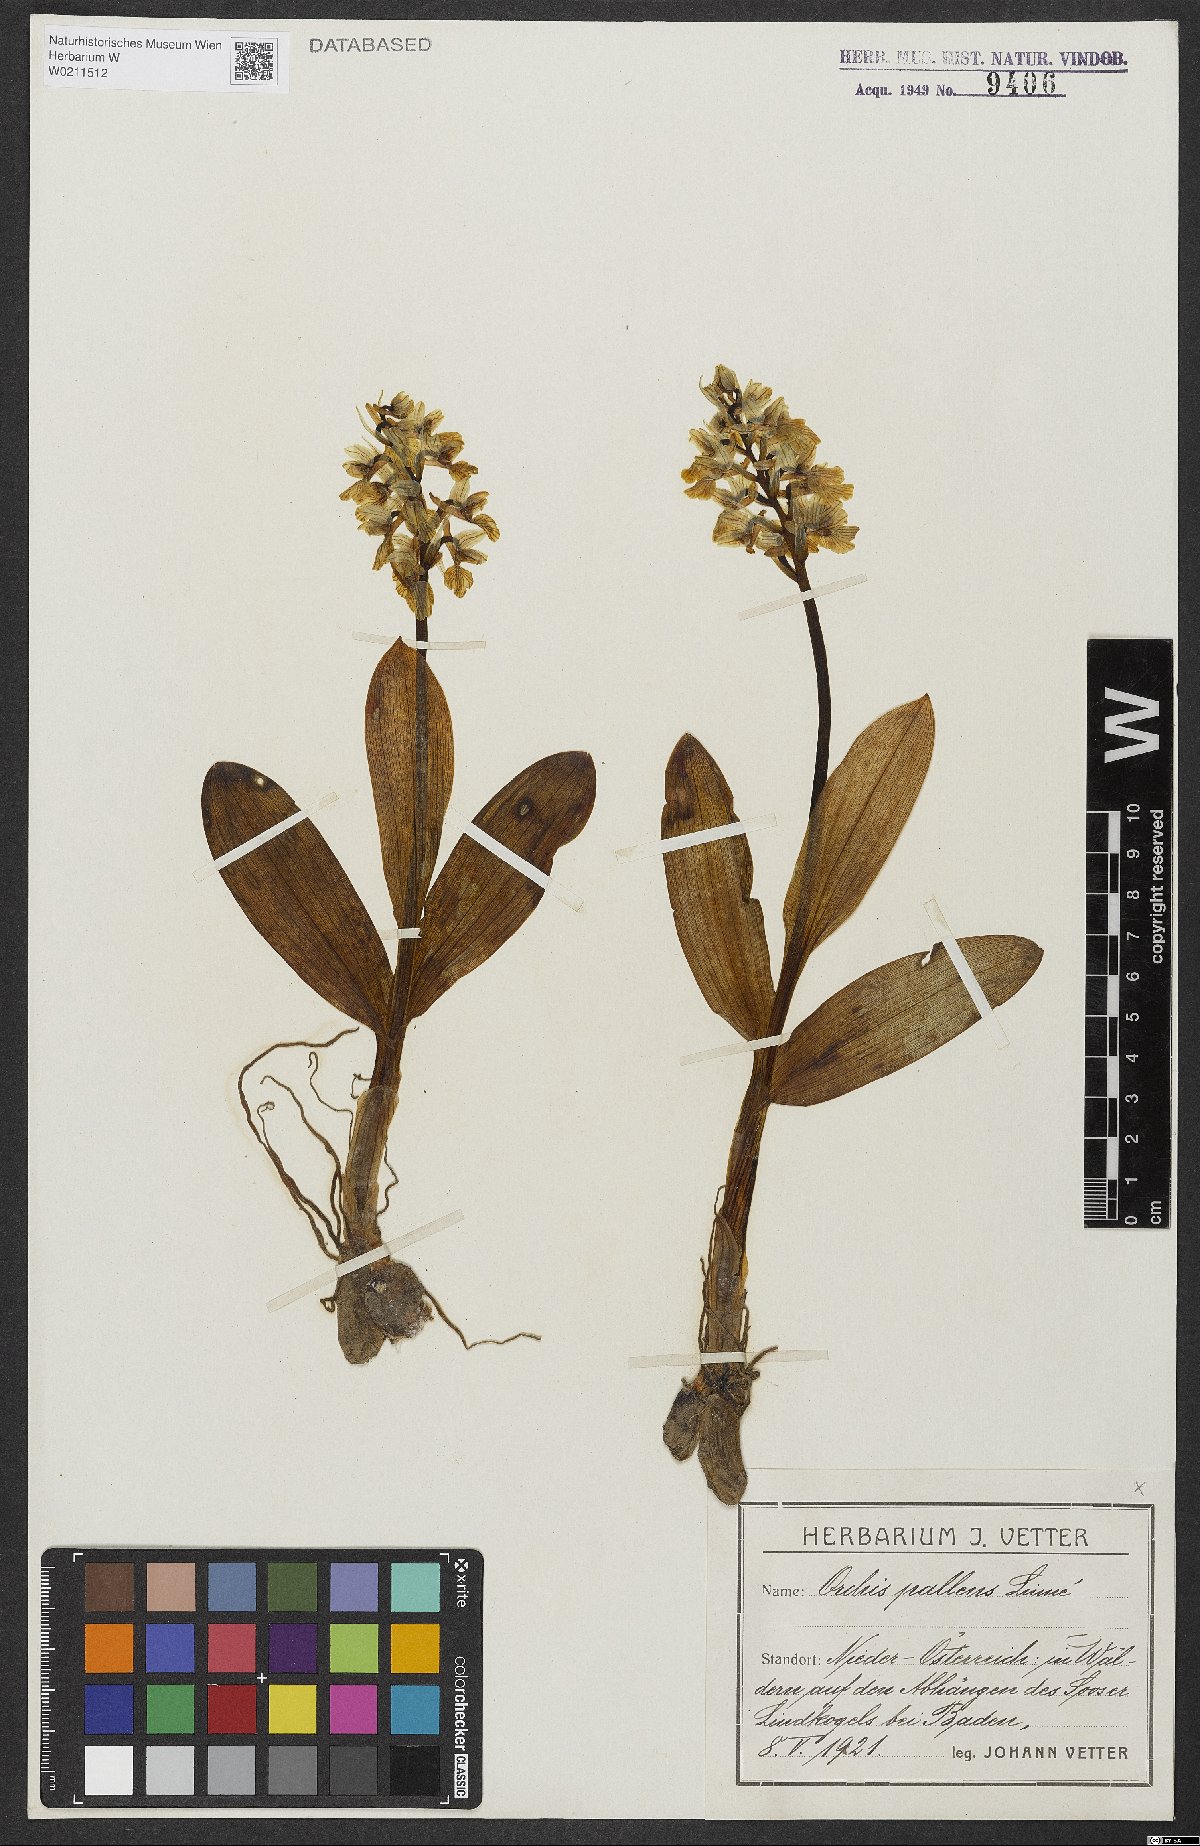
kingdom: Plantae
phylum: Tracheophyta
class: Liliopsida
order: Asparagales
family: Orchidaceae
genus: Orchis
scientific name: Orchis pallens
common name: Pale-flowered orchid
